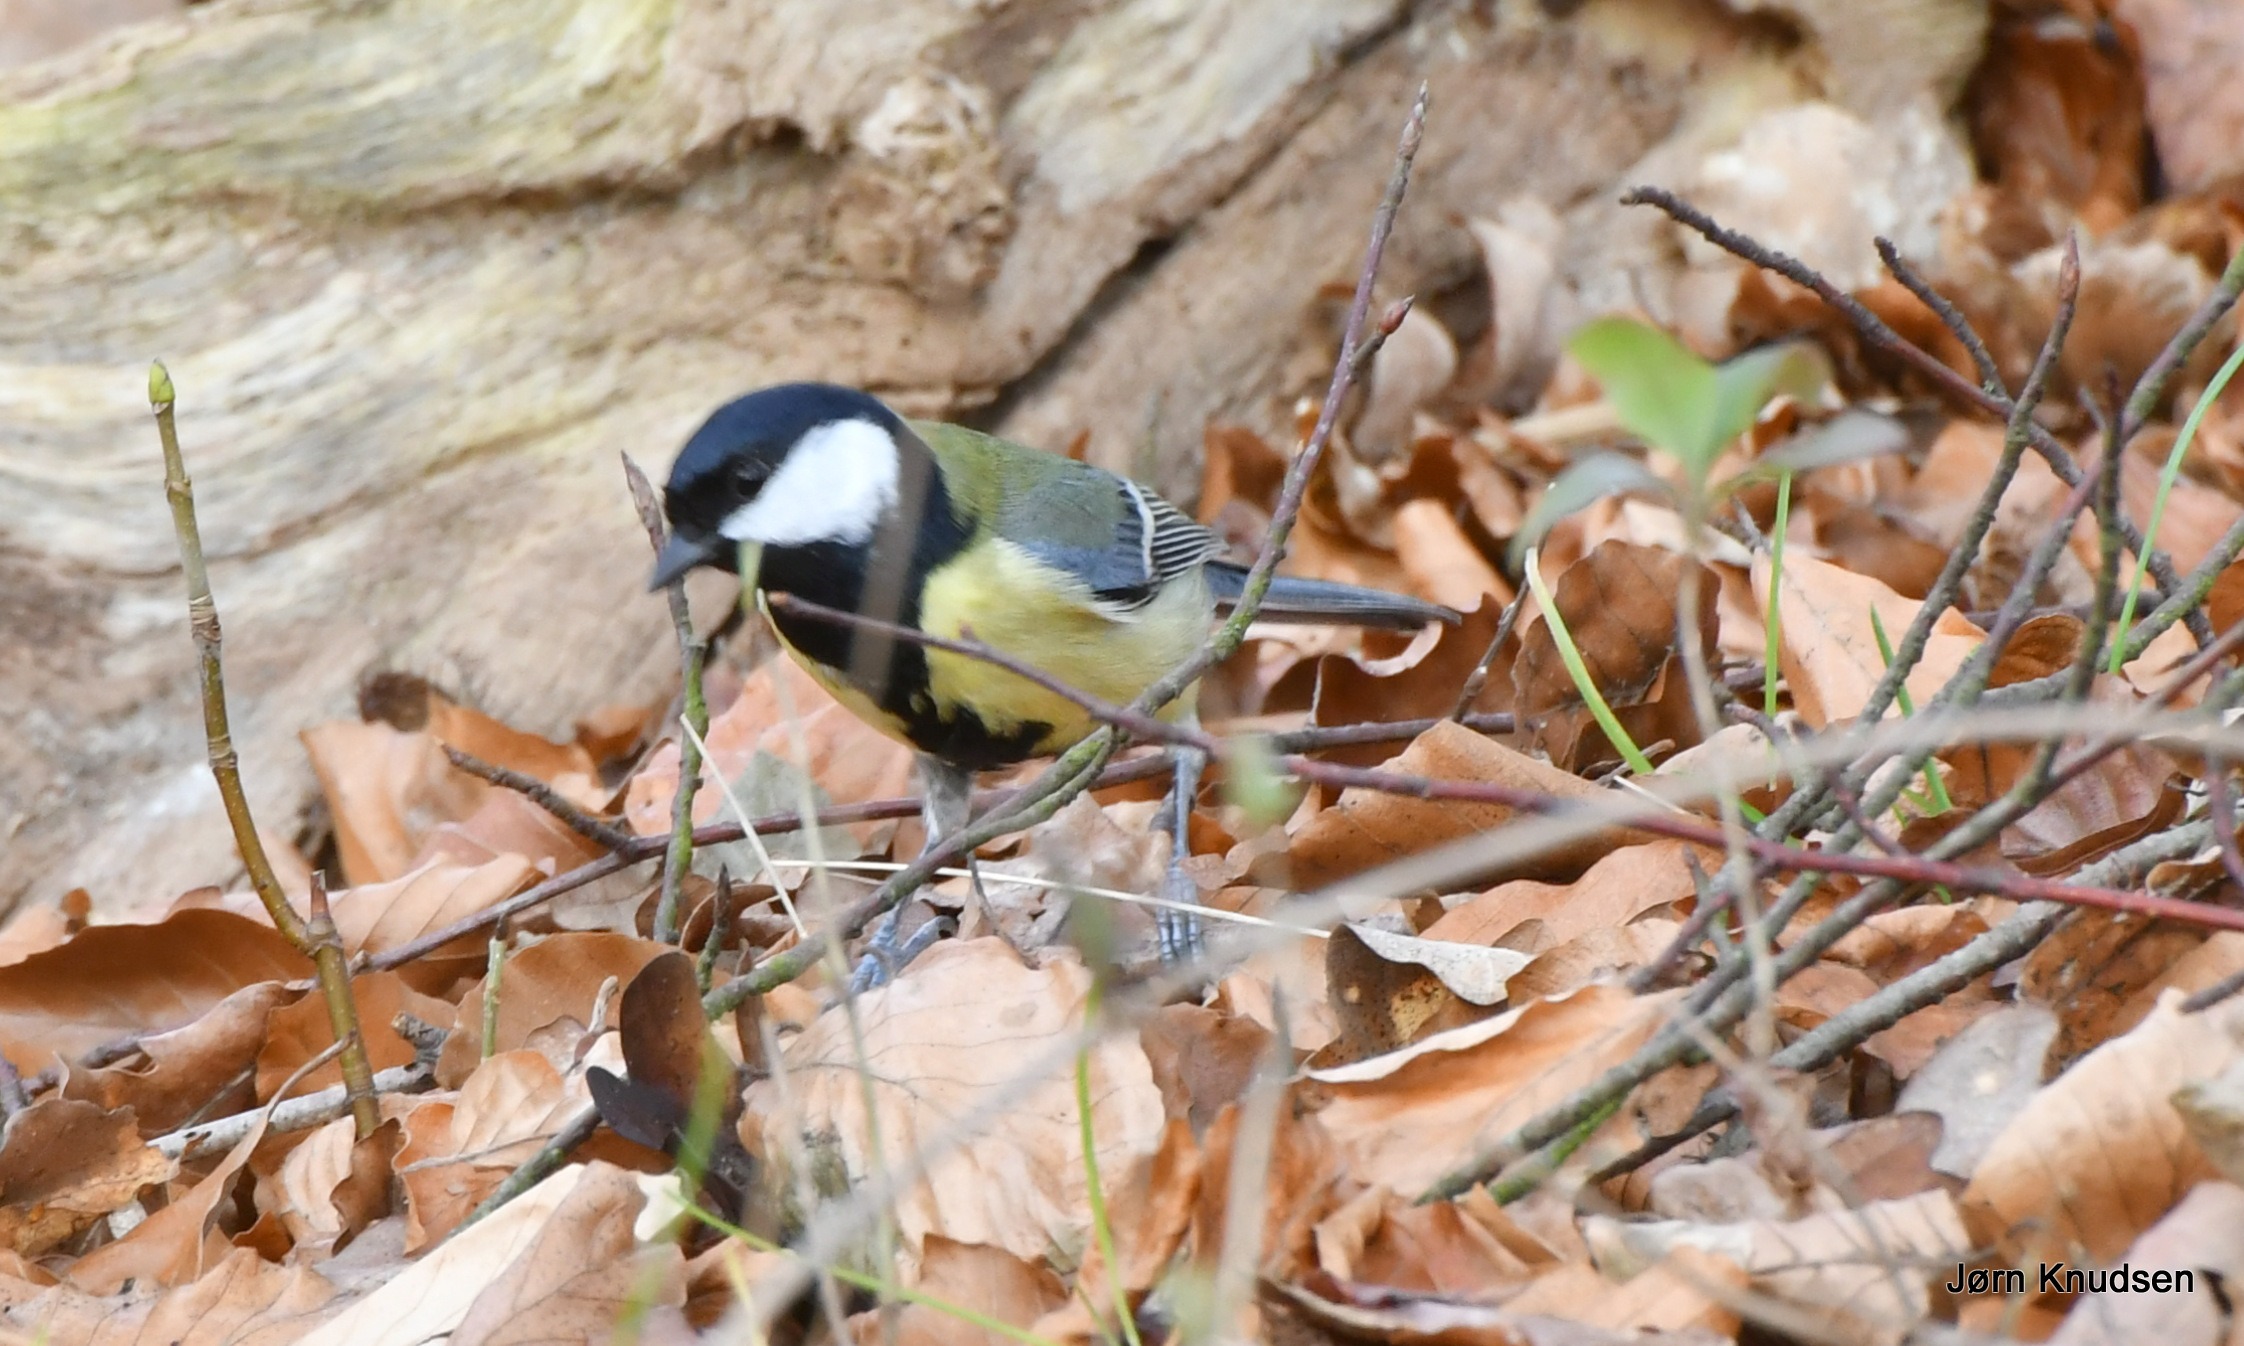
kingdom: Animalia
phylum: Chordata
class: Aves
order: Passeriformes
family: Paridae
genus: Parus
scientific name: Parus major
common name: Musvit
